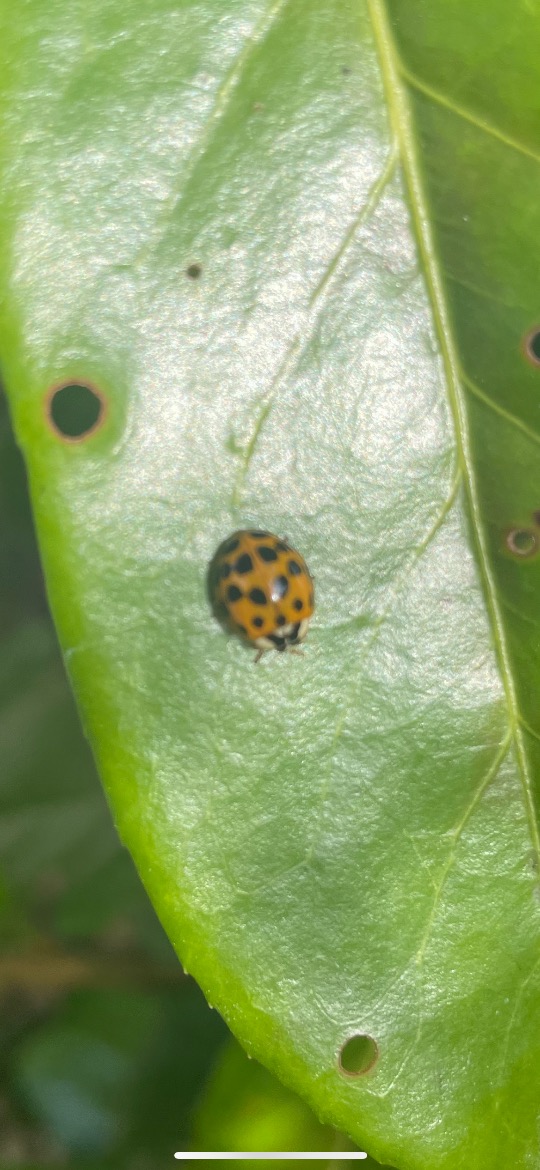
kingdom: Animalia
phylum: Arthropoda
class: Insecta
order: Coleoptera
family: Coccinellidae
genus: Harmonia
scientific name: Harmonia axyridis
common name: Harlekinmariehøne
